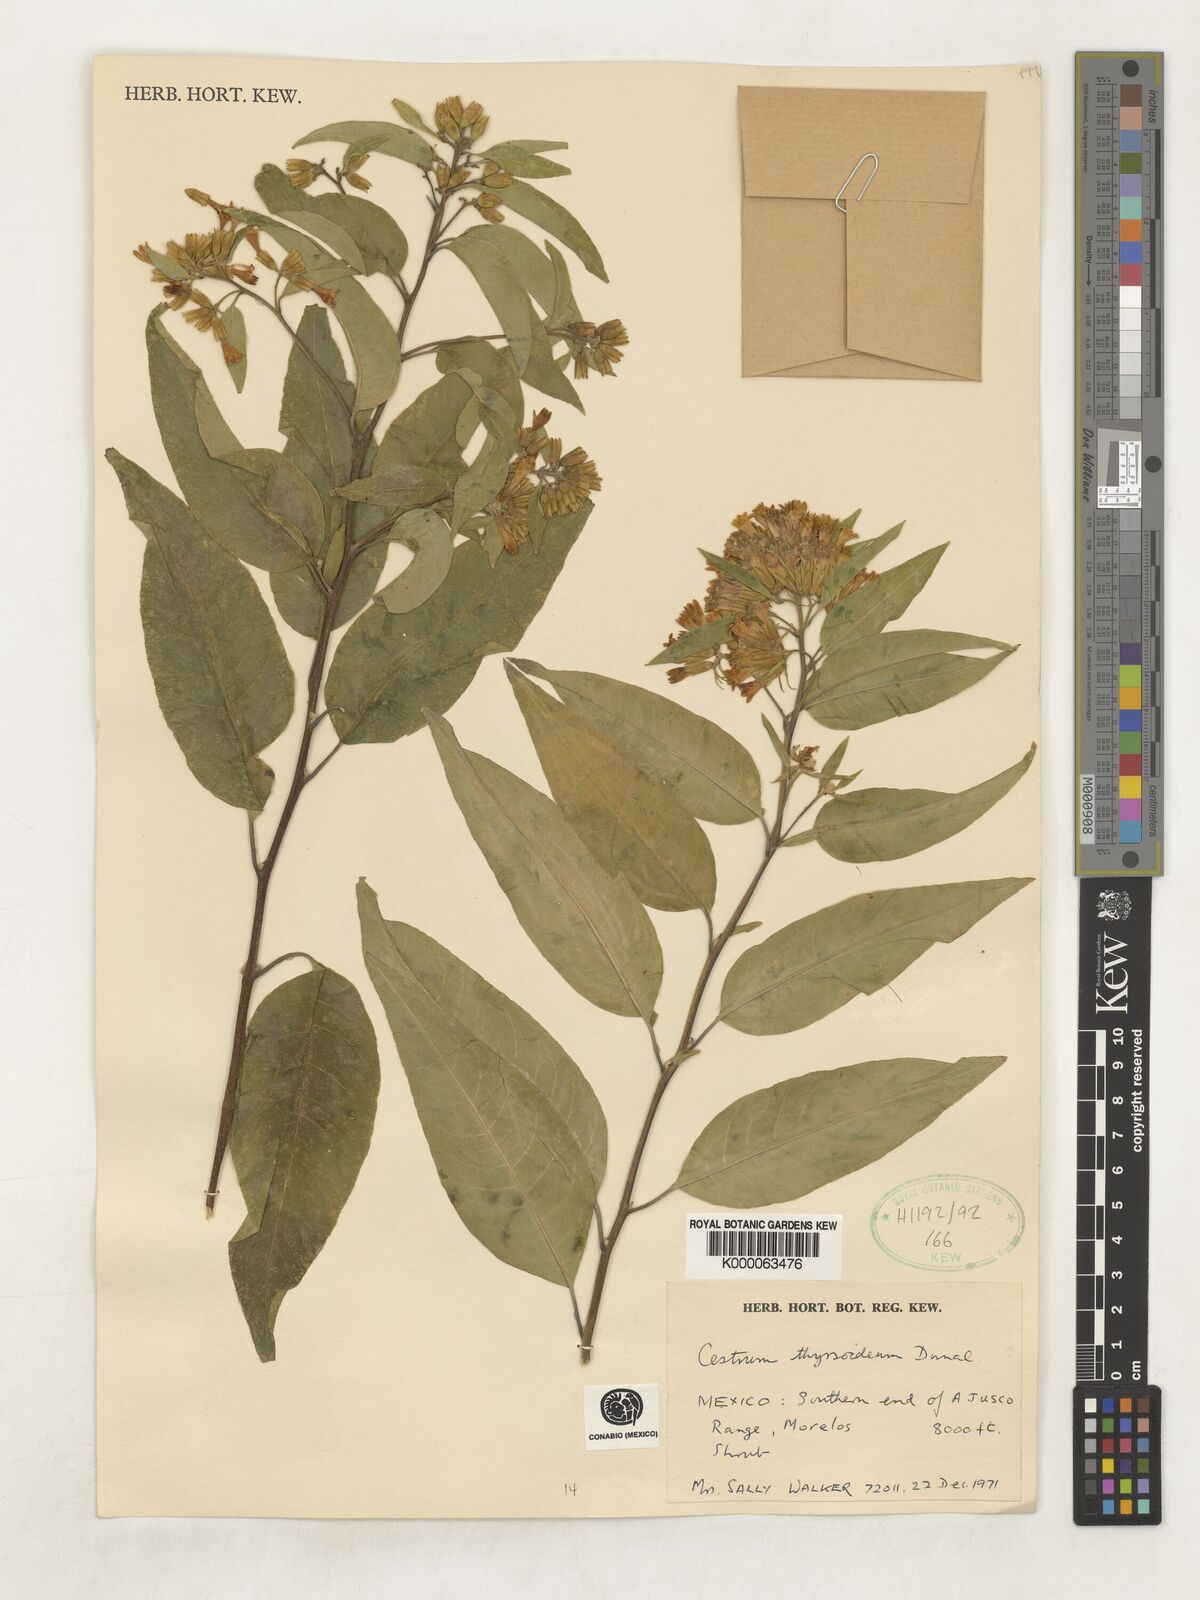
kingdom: Plantae
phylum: Tracheophyta
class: Magnoliopsida
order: Solanales
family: Solanaceae
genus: Cestrum
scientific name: Cestrum
